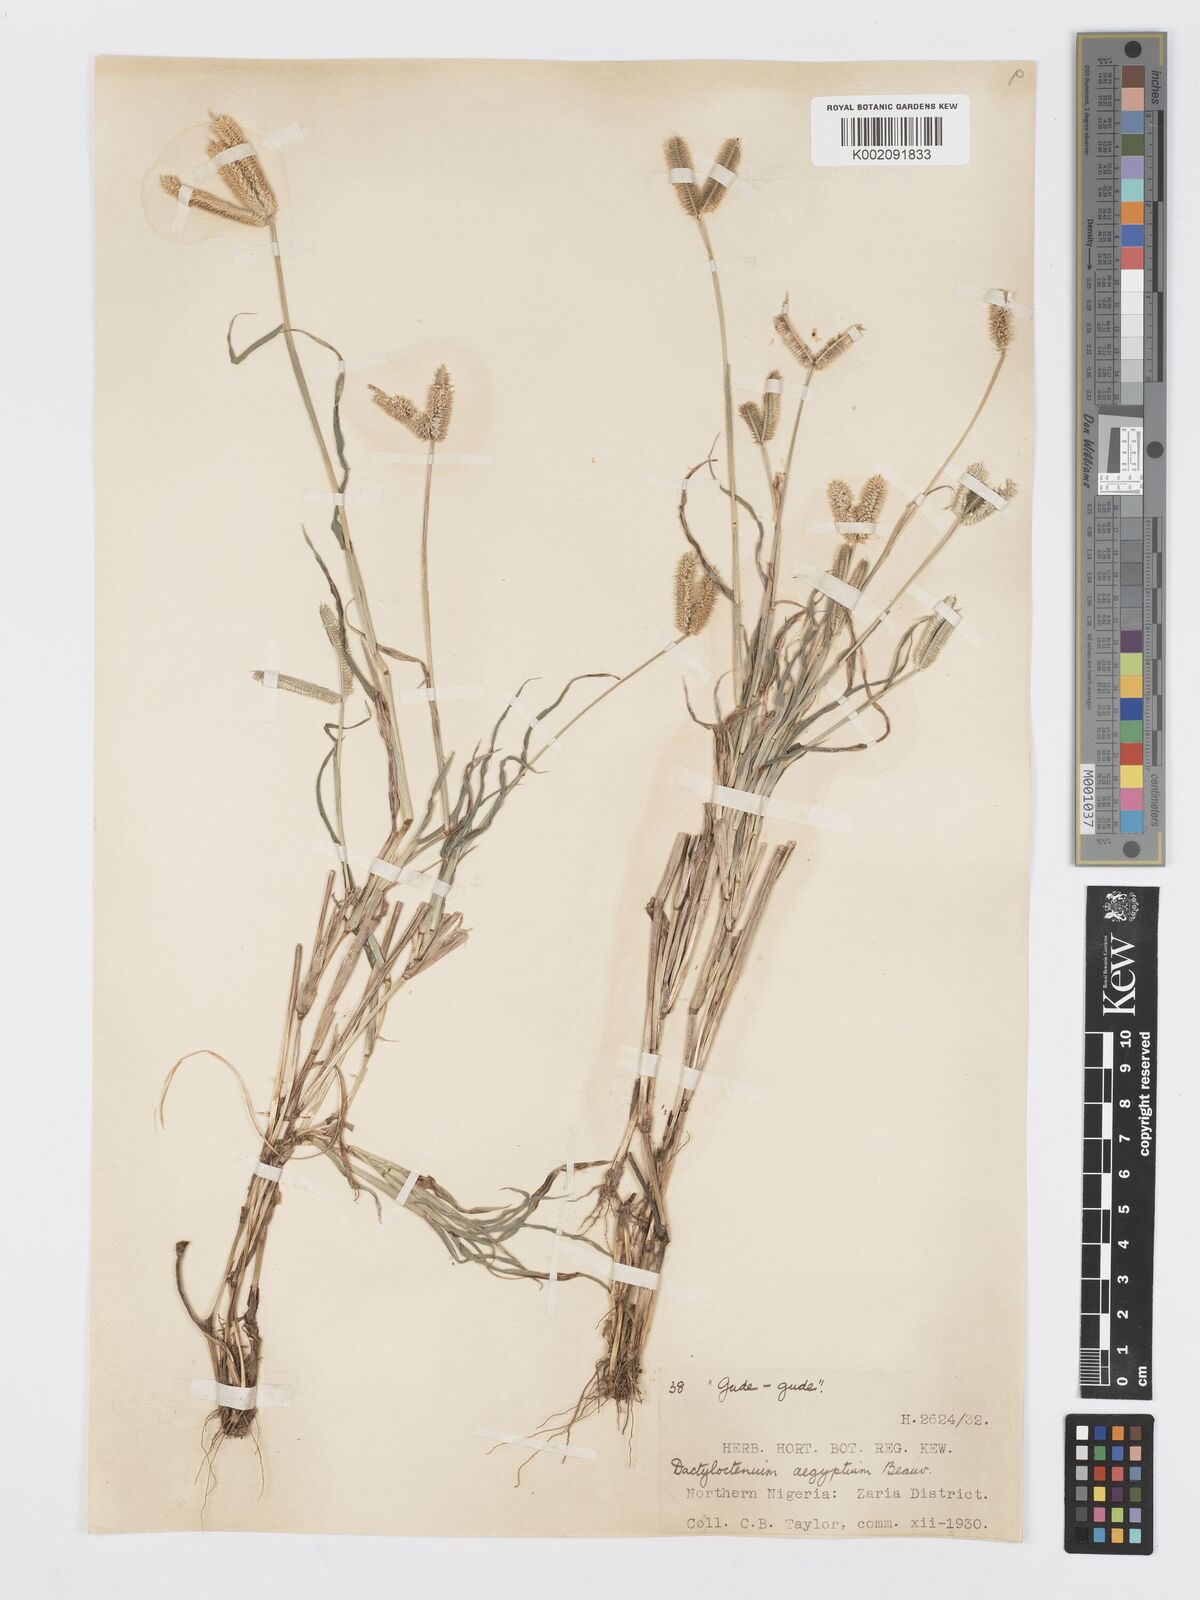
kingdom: Plantae
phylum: Tracheophyta
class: Liliopsida
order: Poales
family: Poaceae
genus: Dactyloctenium
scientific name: Dactyloctenium aegyptium
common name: Egyptian grass
